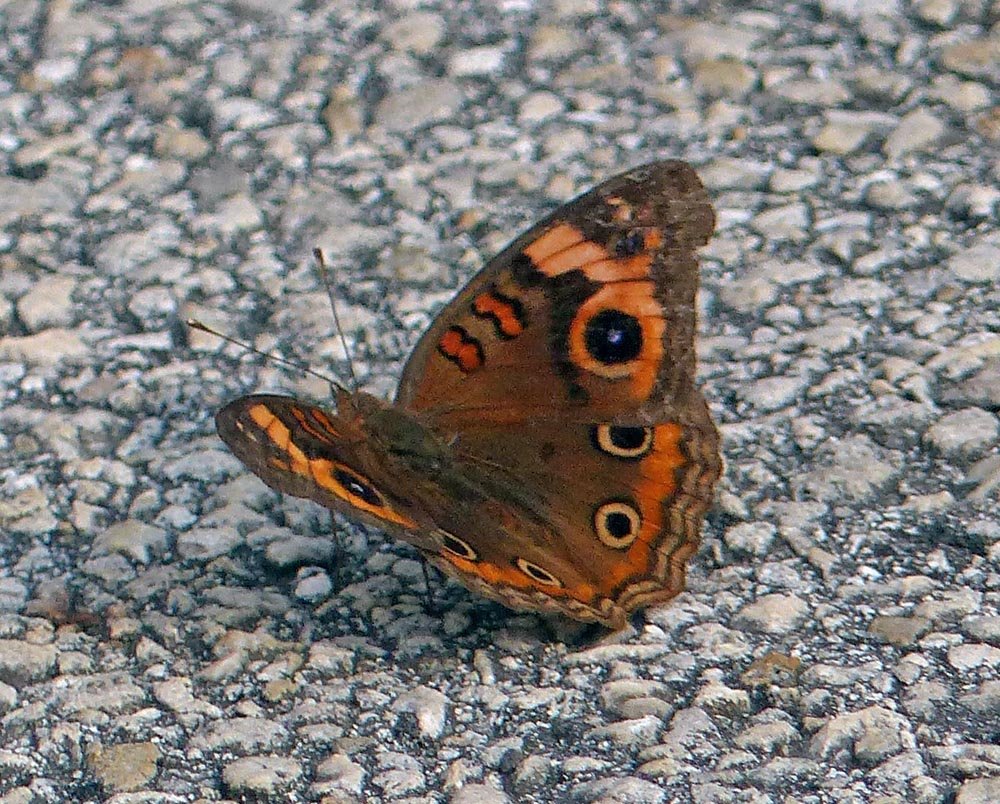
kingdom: Animalia
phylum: Arthropoda
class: Insecta
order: Lepidoptera
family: Nymphalidae
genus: Junonia
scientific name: Junonia evarete
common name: Mangrove Buckeye
